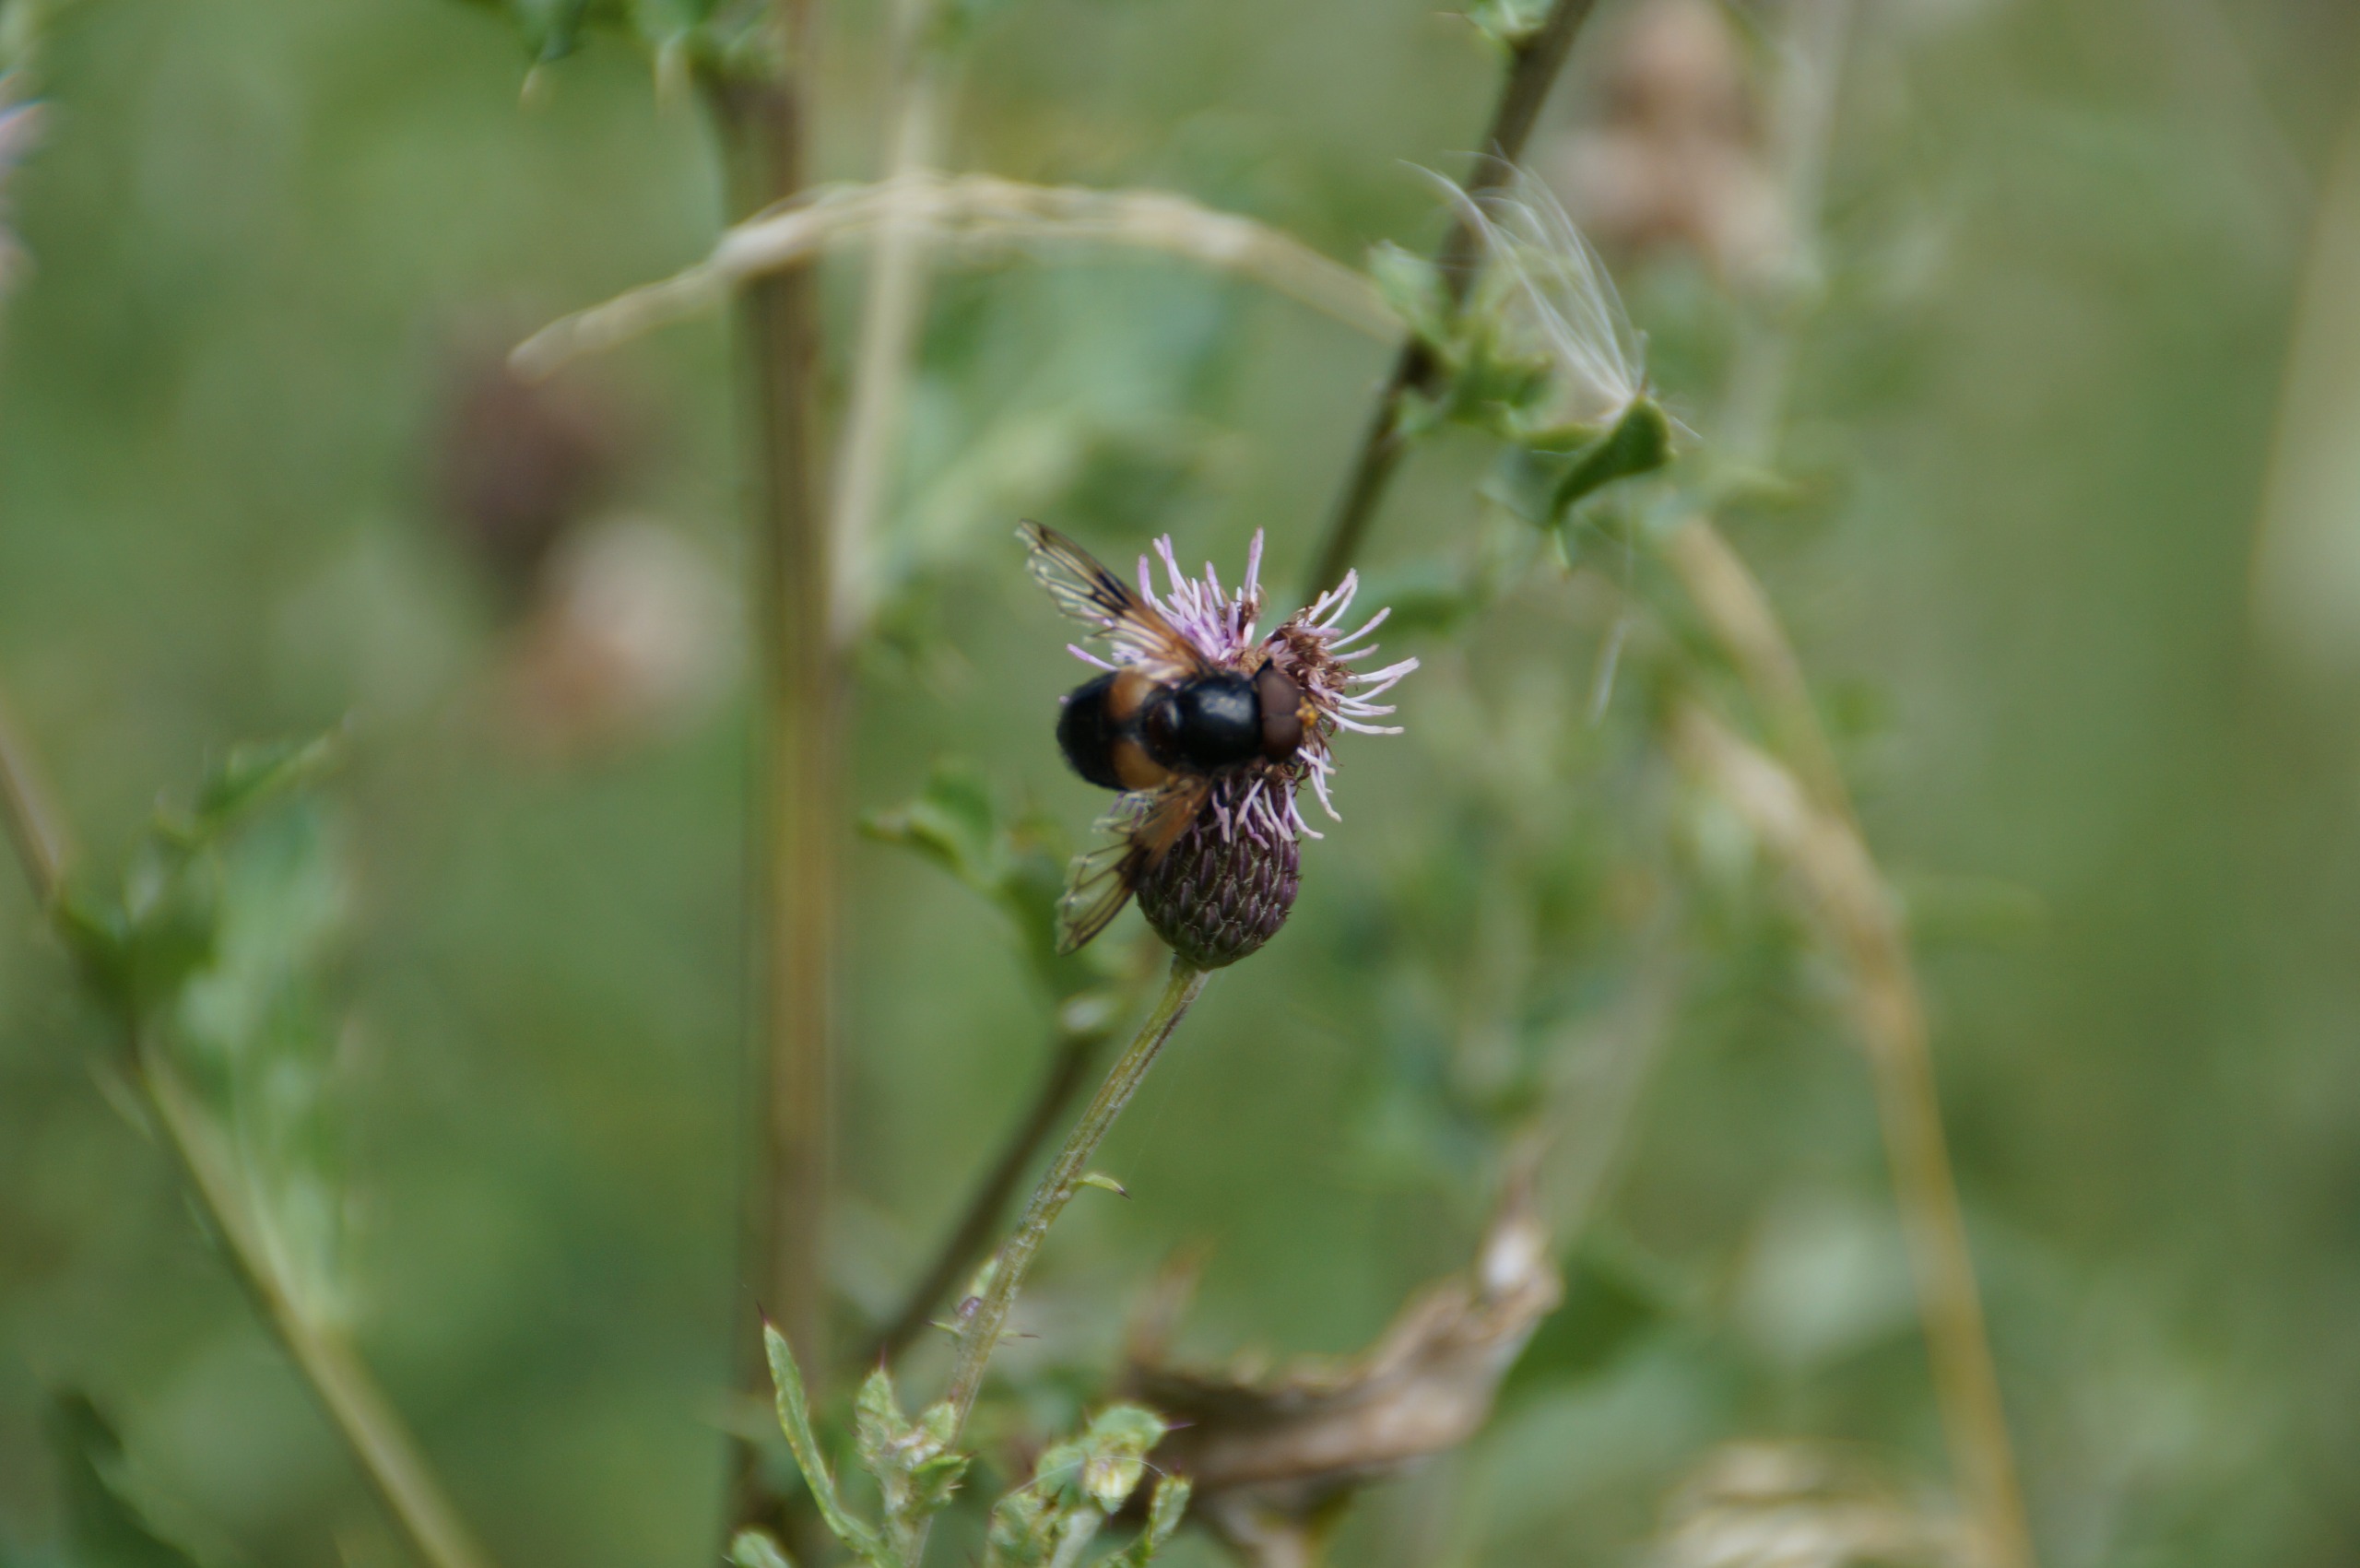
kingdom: Animalia
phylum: Arthropoda
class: Insecta
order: Diptera
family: Syrphidae
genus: Volucella
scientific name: Volucella pellucens
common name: Hvidbåndet humlesvirreflue
